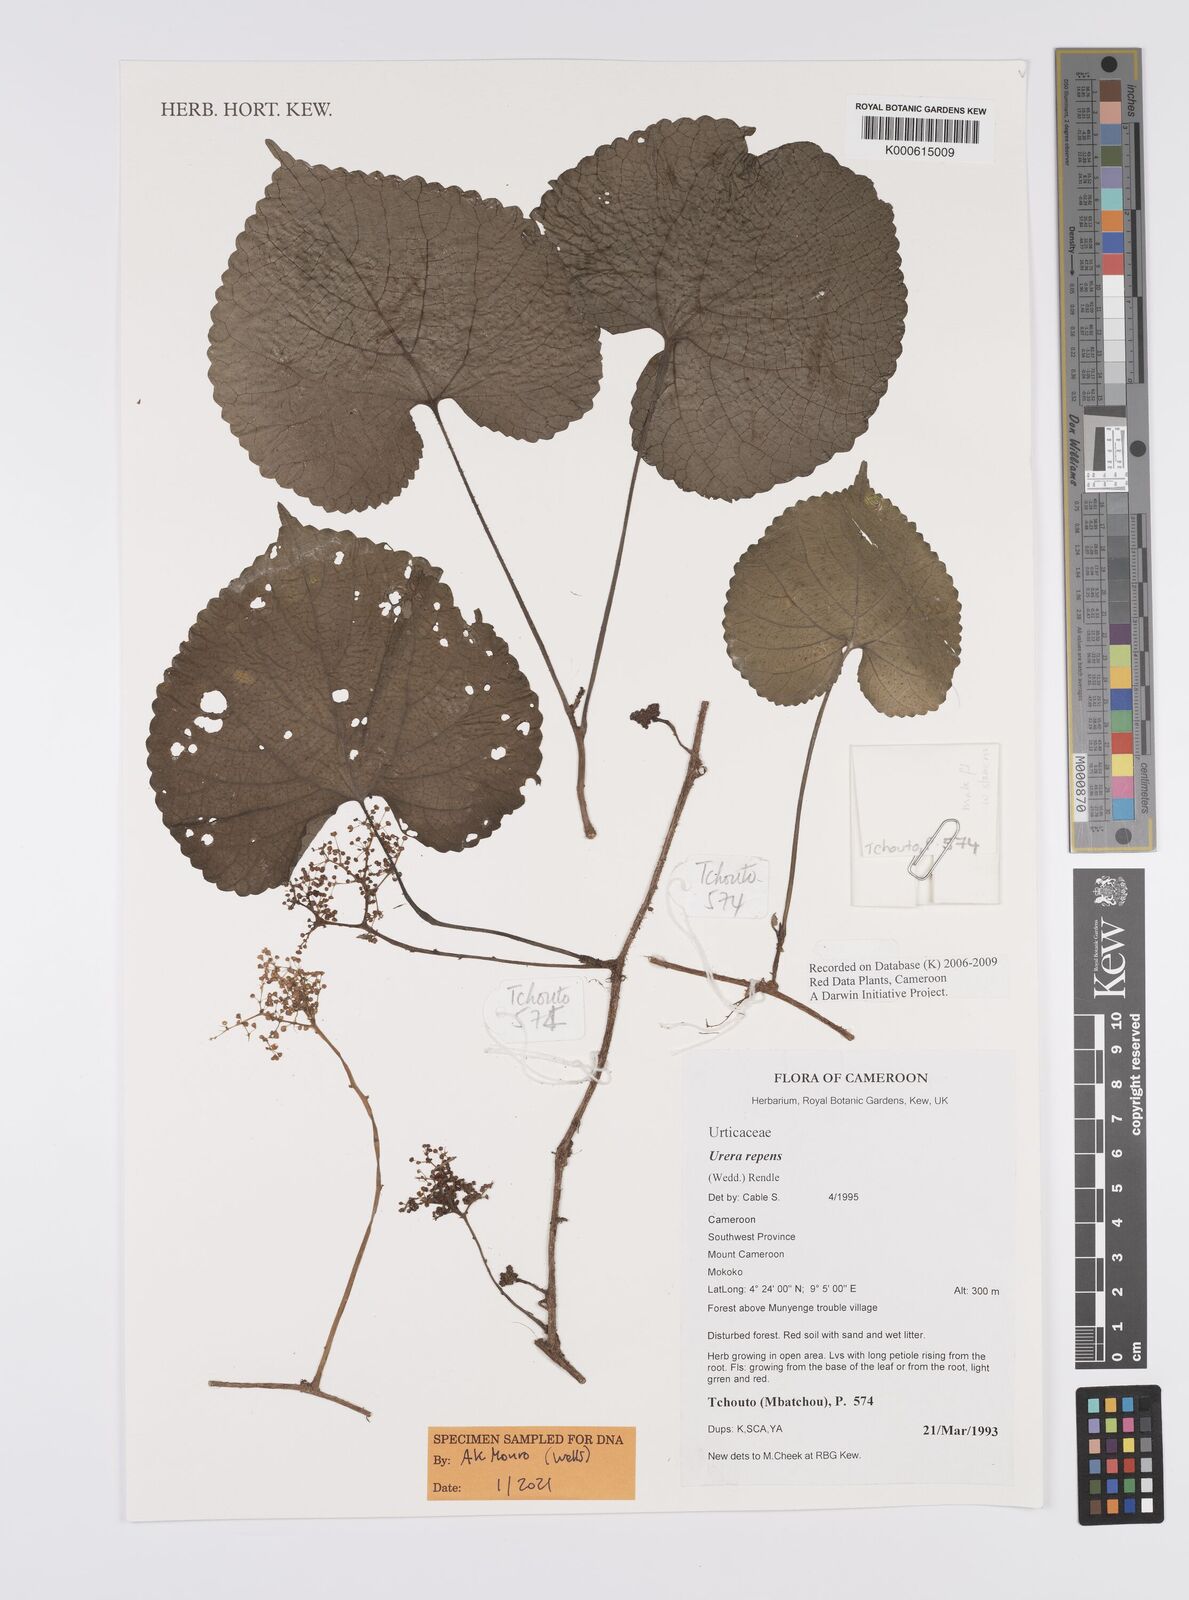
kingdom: Plantae
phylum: Tracheophyta
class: Magnoliopsida
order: Rosales
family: Urticaceae
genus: Scepocarpus
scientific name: Scepocarpus repens
